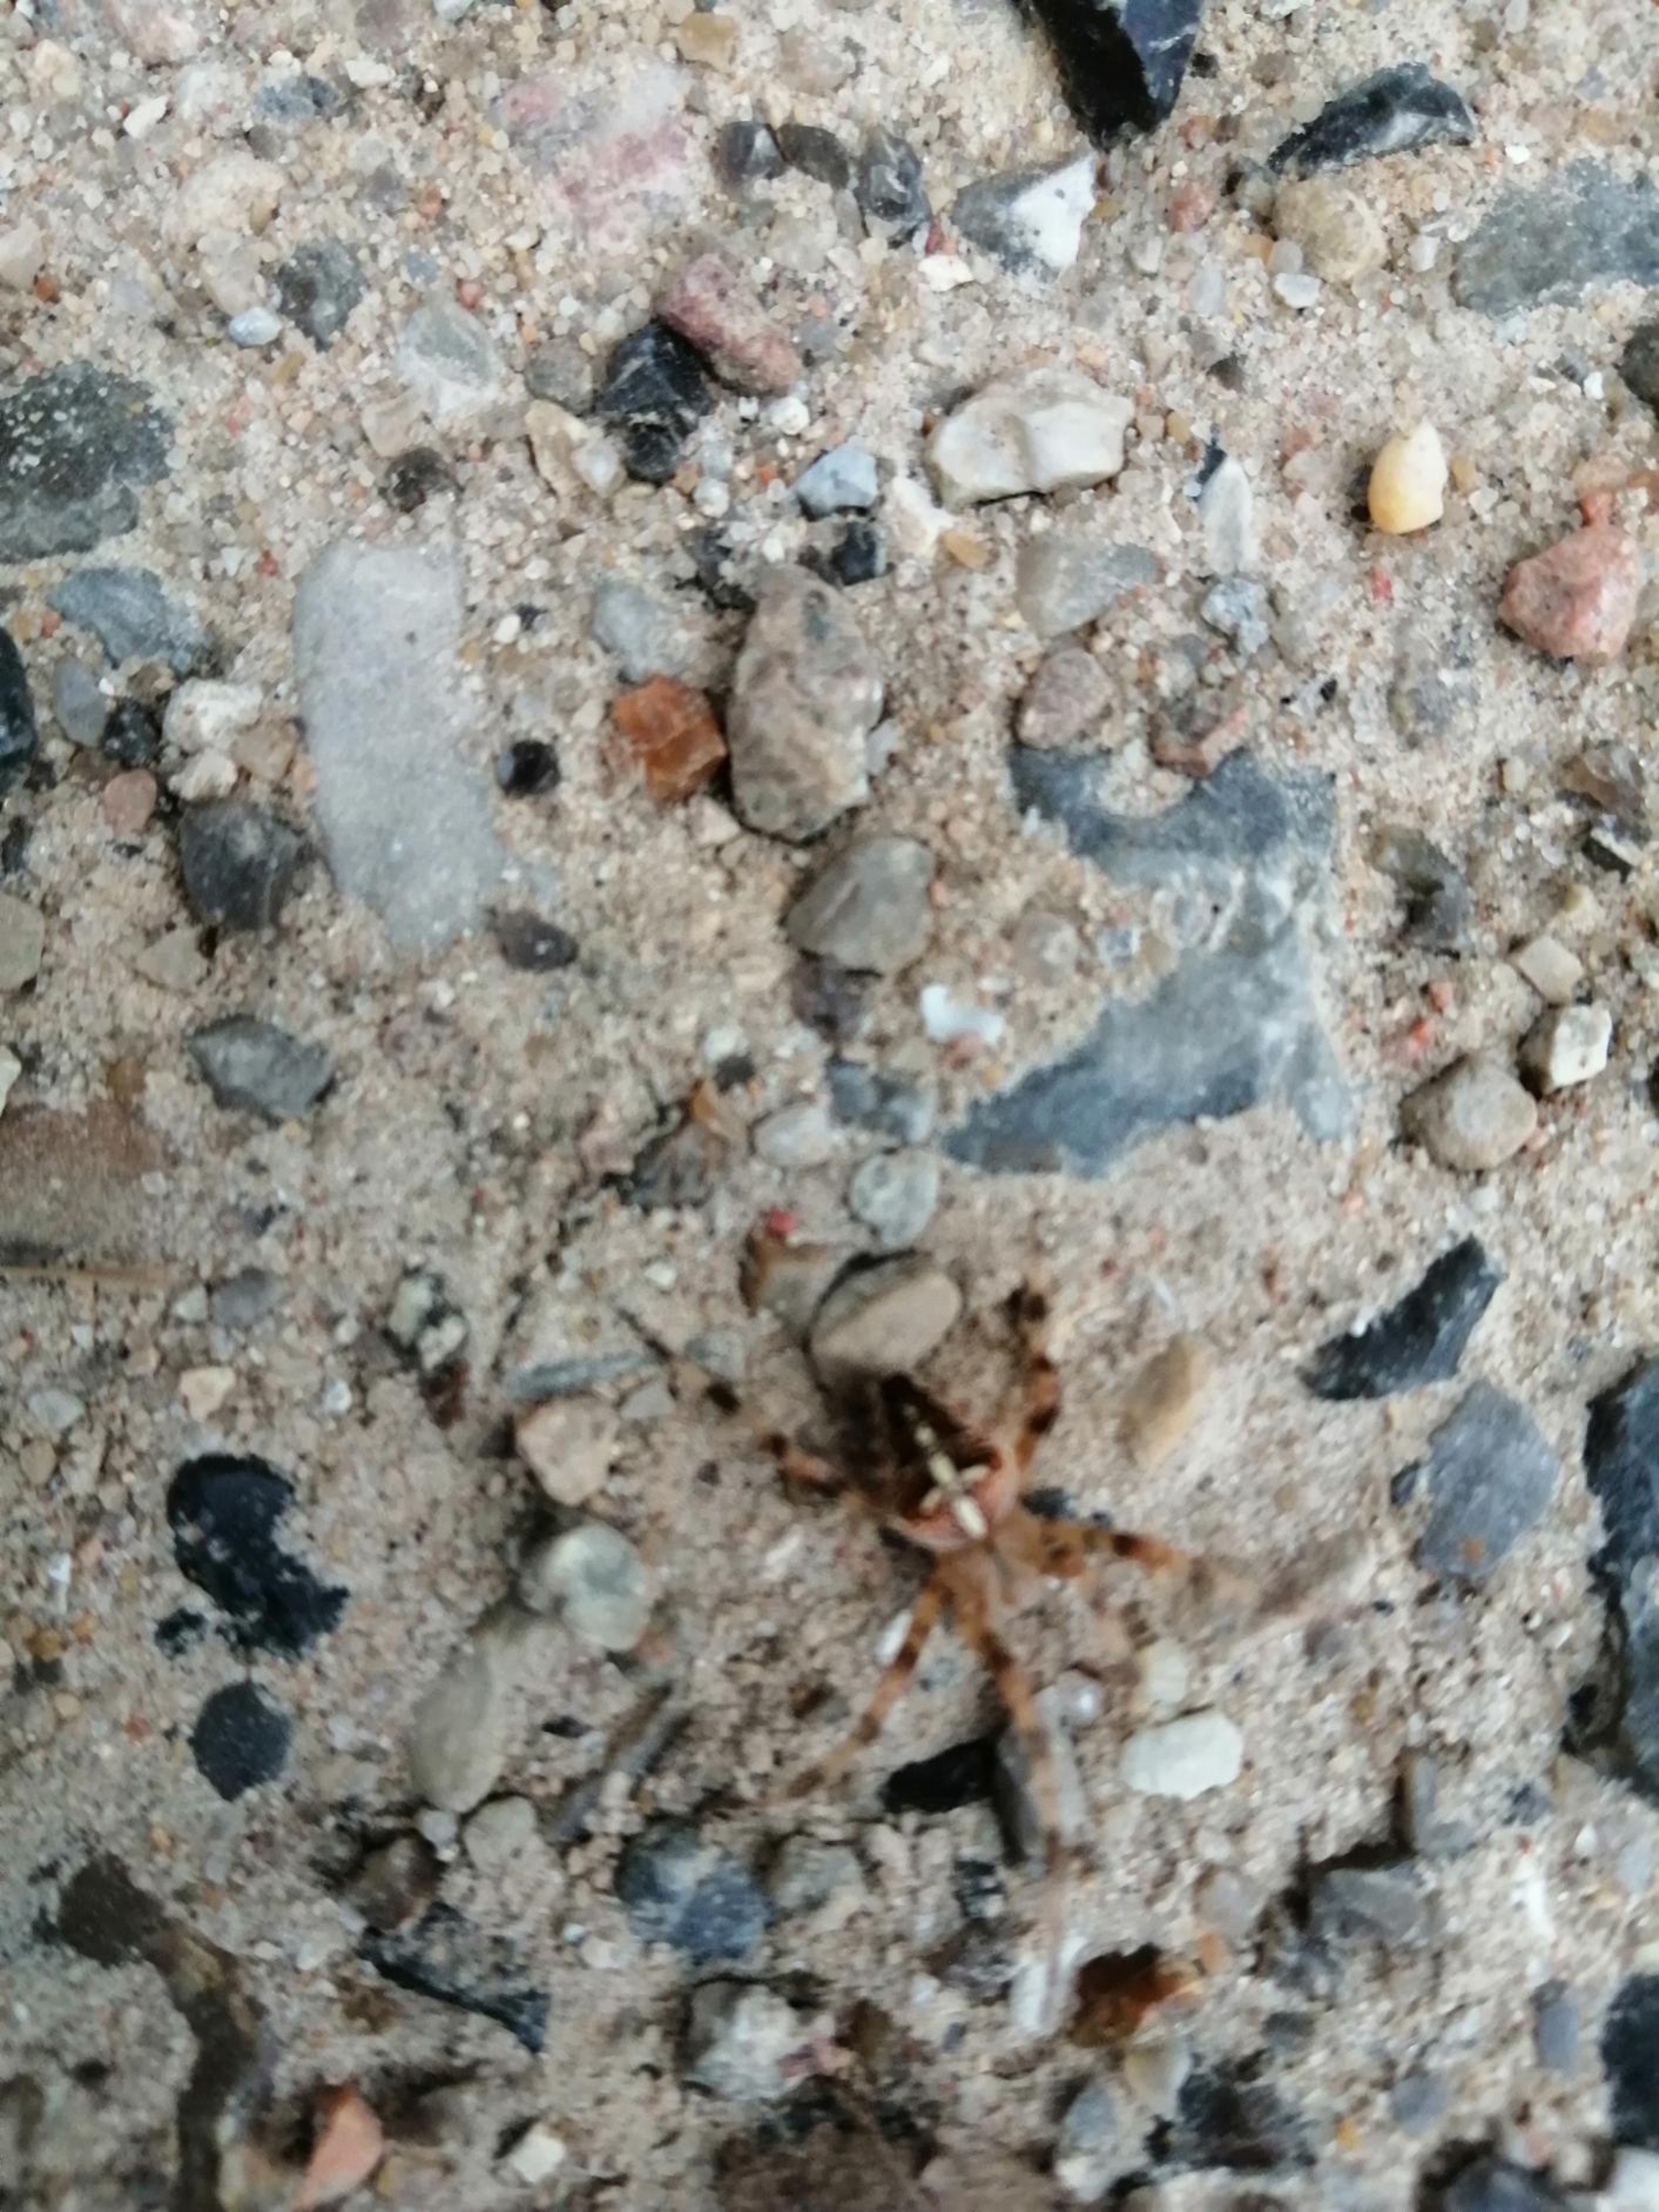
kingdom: Animalia
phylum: Arthropoda
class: Arachnida
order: Araneae
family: Araneidae
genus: Araneus
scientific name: Araneus diadematus
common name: Korsedderkop
